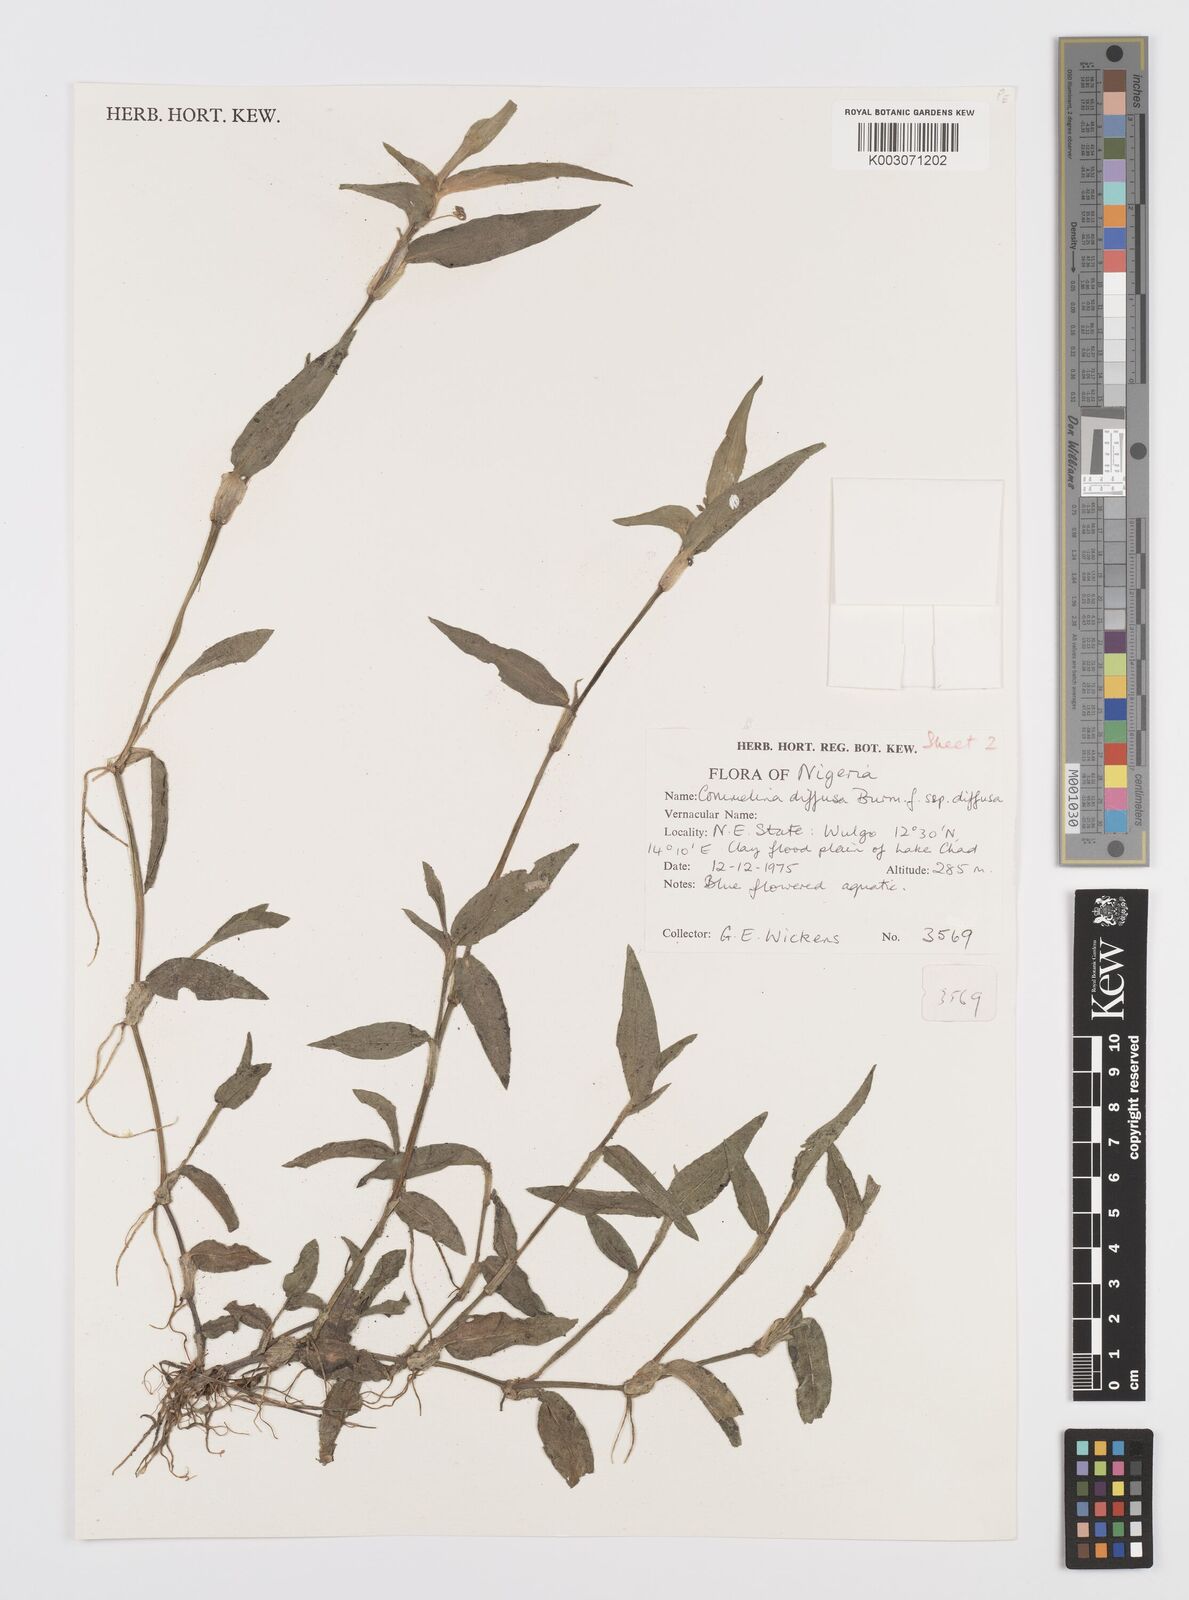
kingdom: Plantae
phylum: Tracheophyta
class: Liliopsida
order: Commelinales
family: Commelinaceae
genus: Commelina
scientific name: Commelina diffusa
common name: Climbing dayflower
